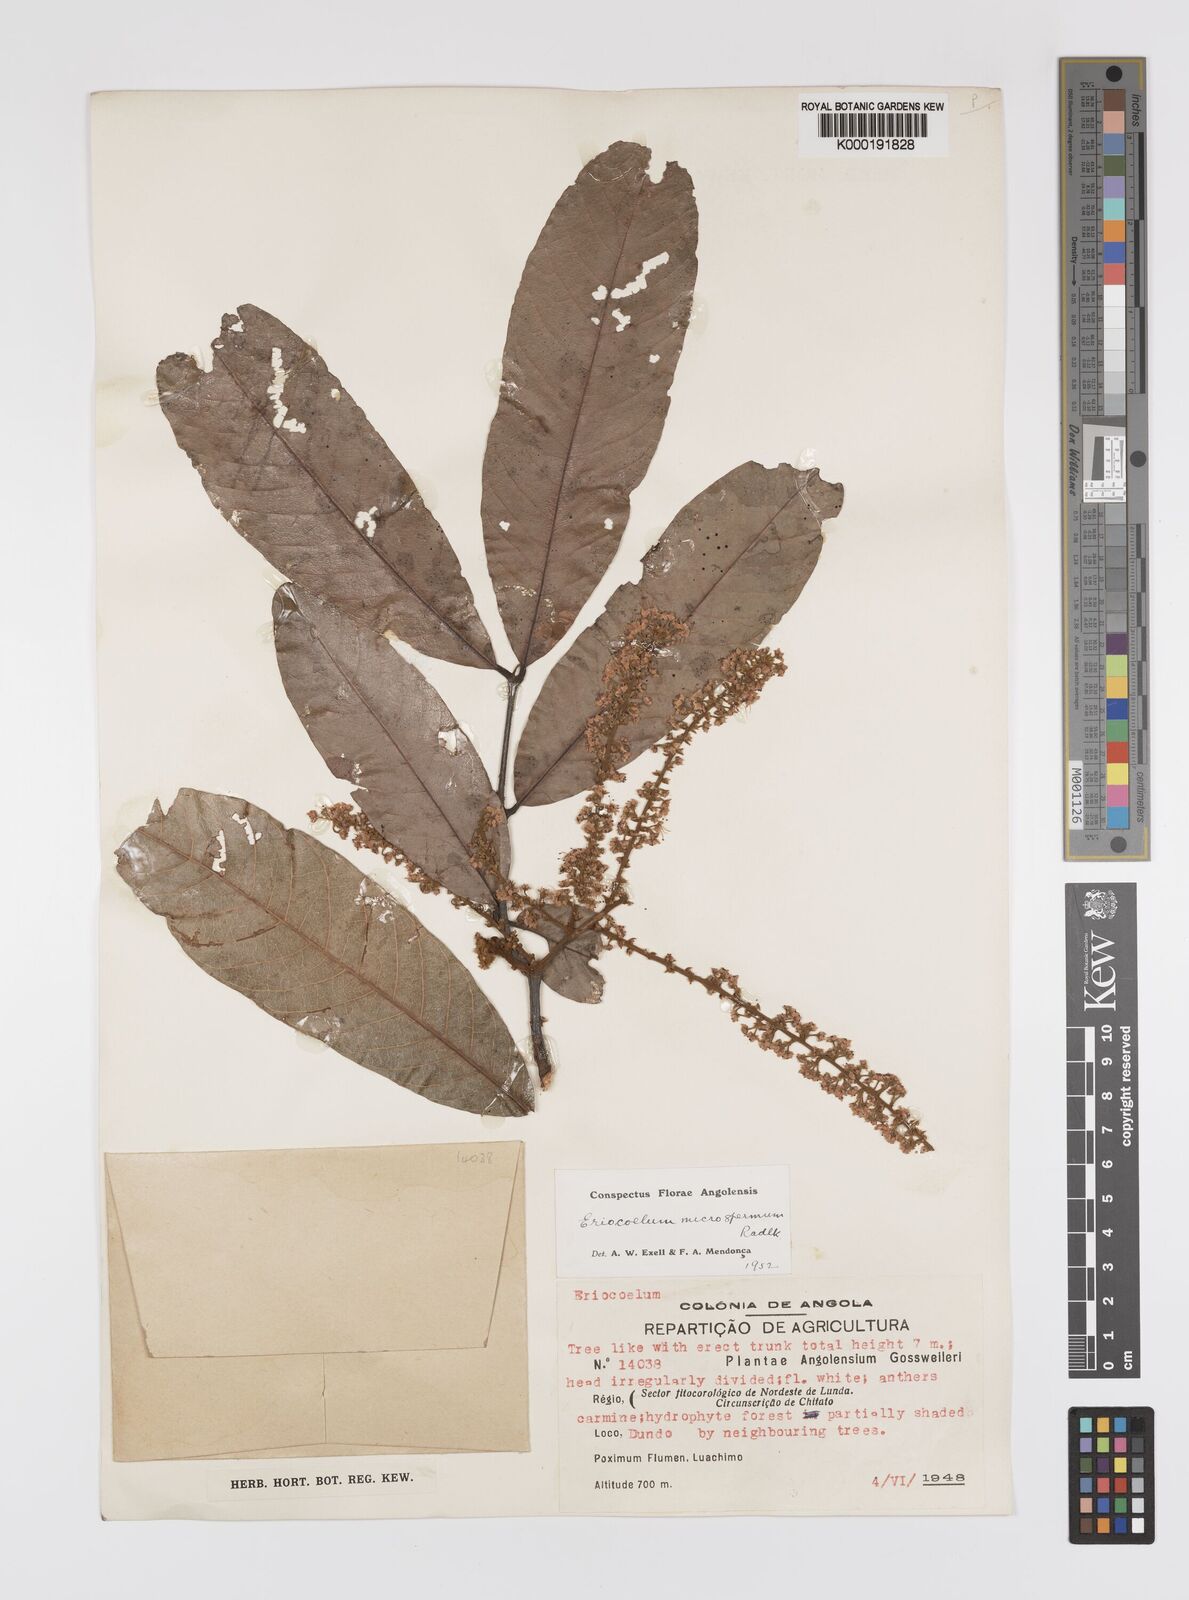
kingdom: Plantae
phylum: Tracheophyta
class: Magnoliopsida
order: Sapindales
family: Sapindaceae
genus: Eriocoelum
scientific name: Eriocoelum
